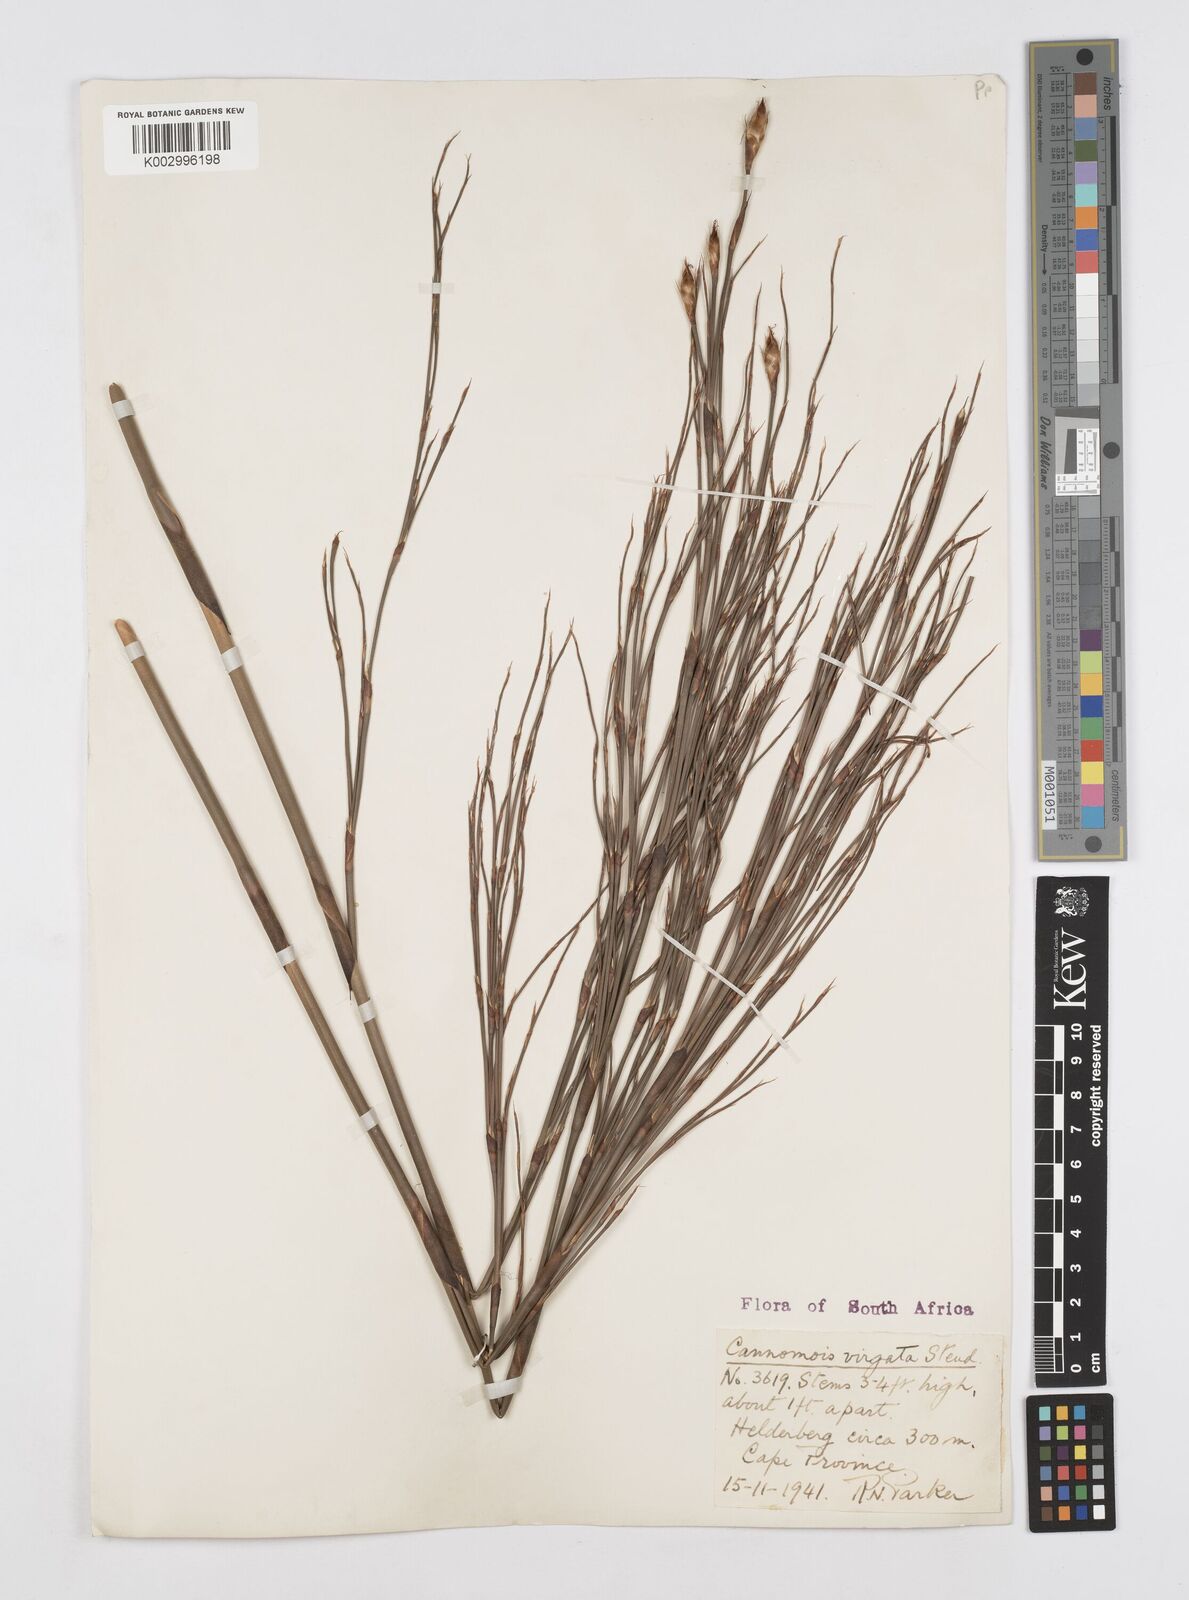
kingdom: Plantae
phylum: Tracheophyta
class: Liliopsida
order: Poales
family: Restionaceae
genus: Cannomois
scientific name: Cannomois virgata
